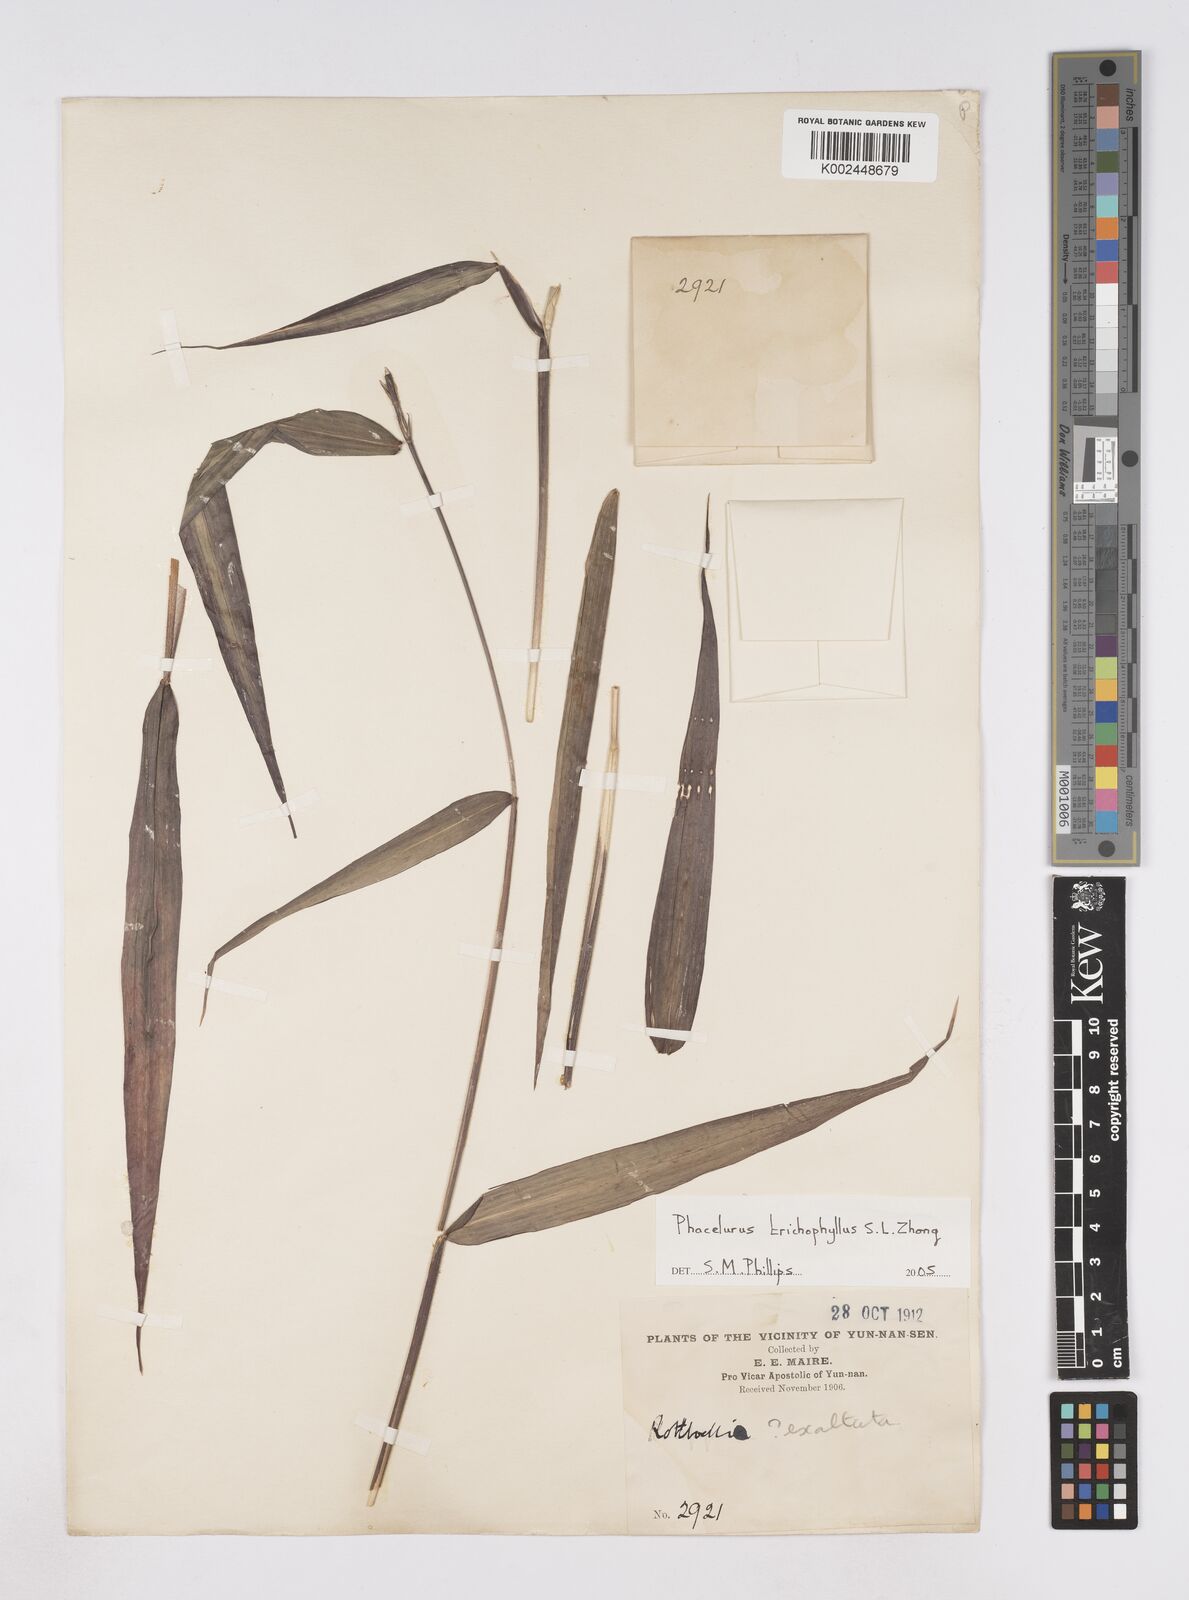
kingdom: Plantae
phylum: Tracheophyta
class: Liliopsida
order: Poales
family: Poaceae
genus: Phacelurus
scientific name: Phacelurus trichophyllus
